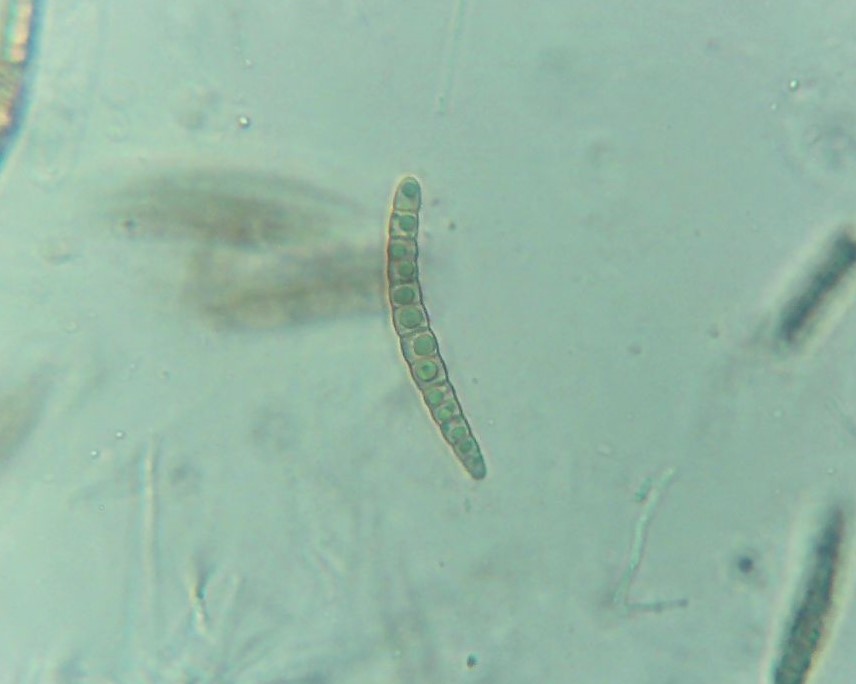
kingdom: Fungi
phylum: Ascomycota
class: Dothideomycetes
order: Pleosporales
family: Leptosphaeriaceae
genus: Leptosphaeria
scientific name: Leptosphaeria acuta
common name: spids kulkegle
